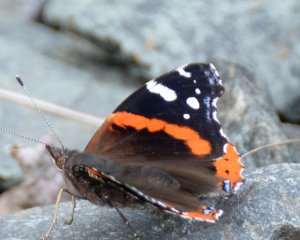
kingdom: Animalia
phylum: Arthropoda
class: Insecta
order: Lepidoptera
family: Nymphalidae
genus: Vanessa
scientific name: Vanessa atalanta
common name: Red Admiral
